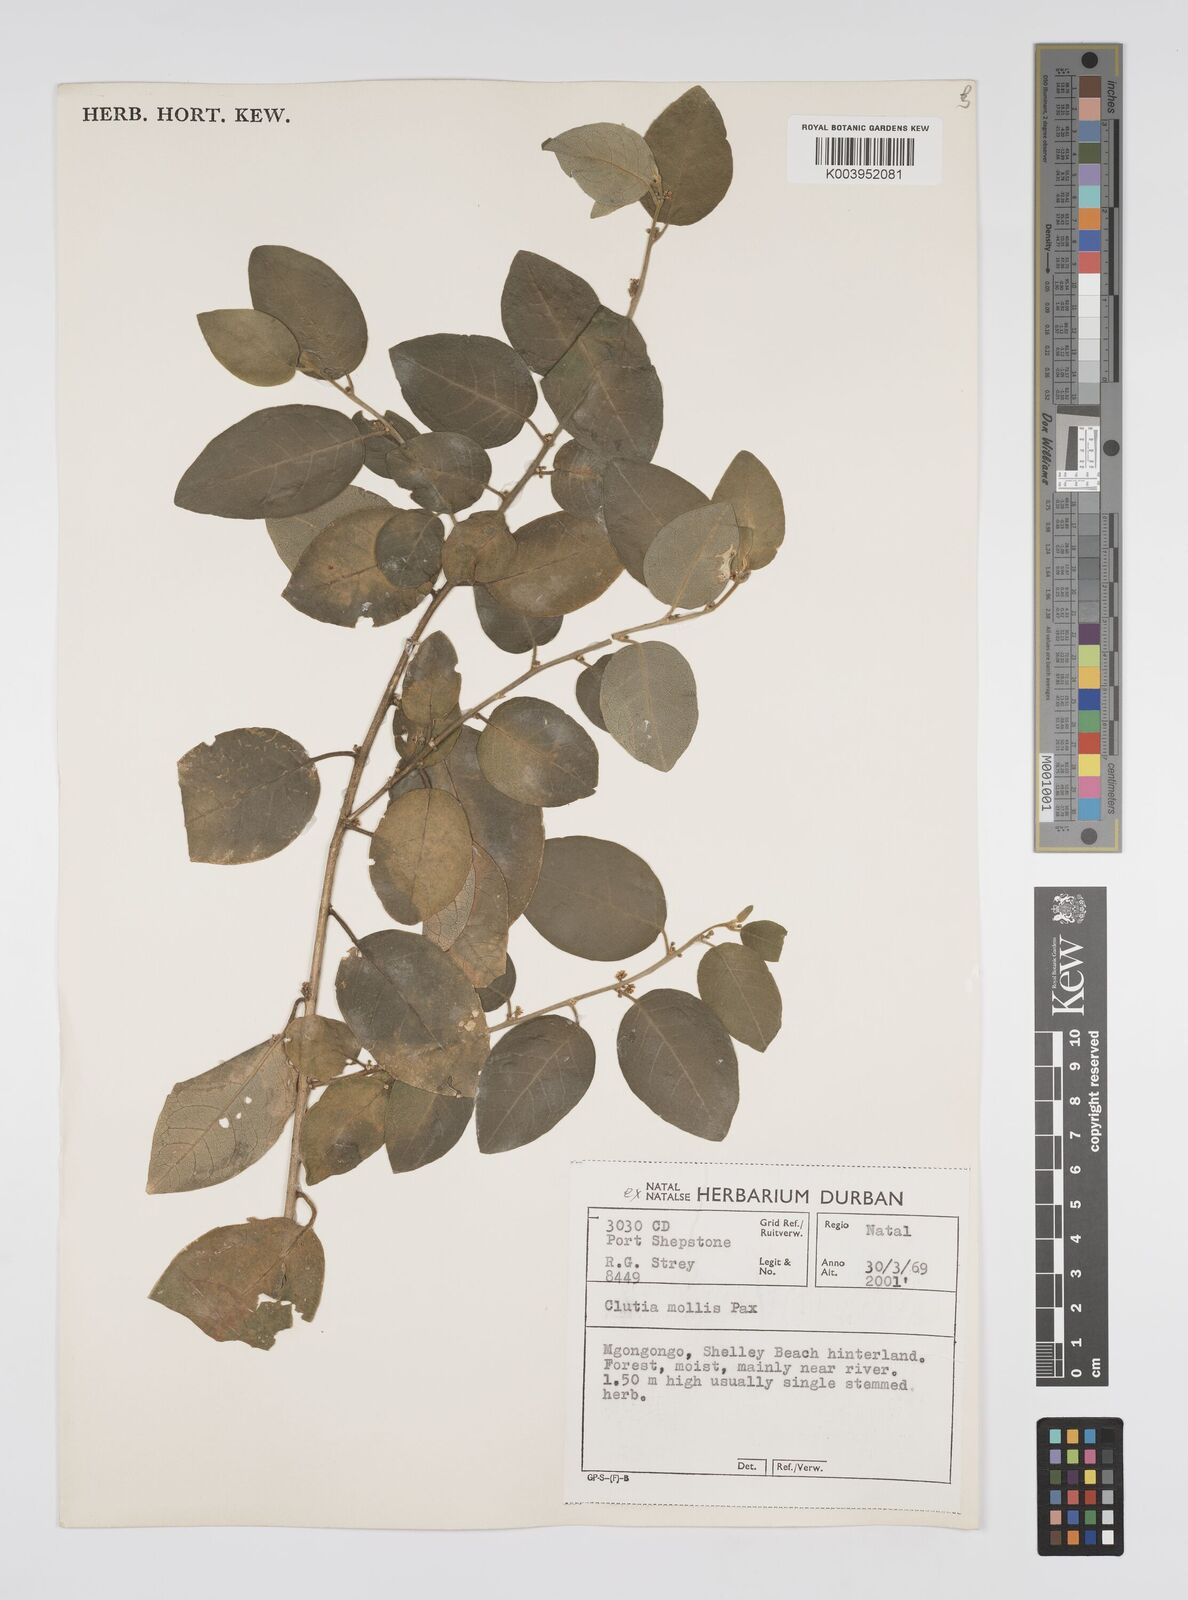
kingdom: Plantae
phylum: Tracheophyta
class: Magnoliopsida
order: Malpighiales
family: Peraceae
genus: Clutia
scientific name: Clutia abyssinica
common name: Large lightning bush
